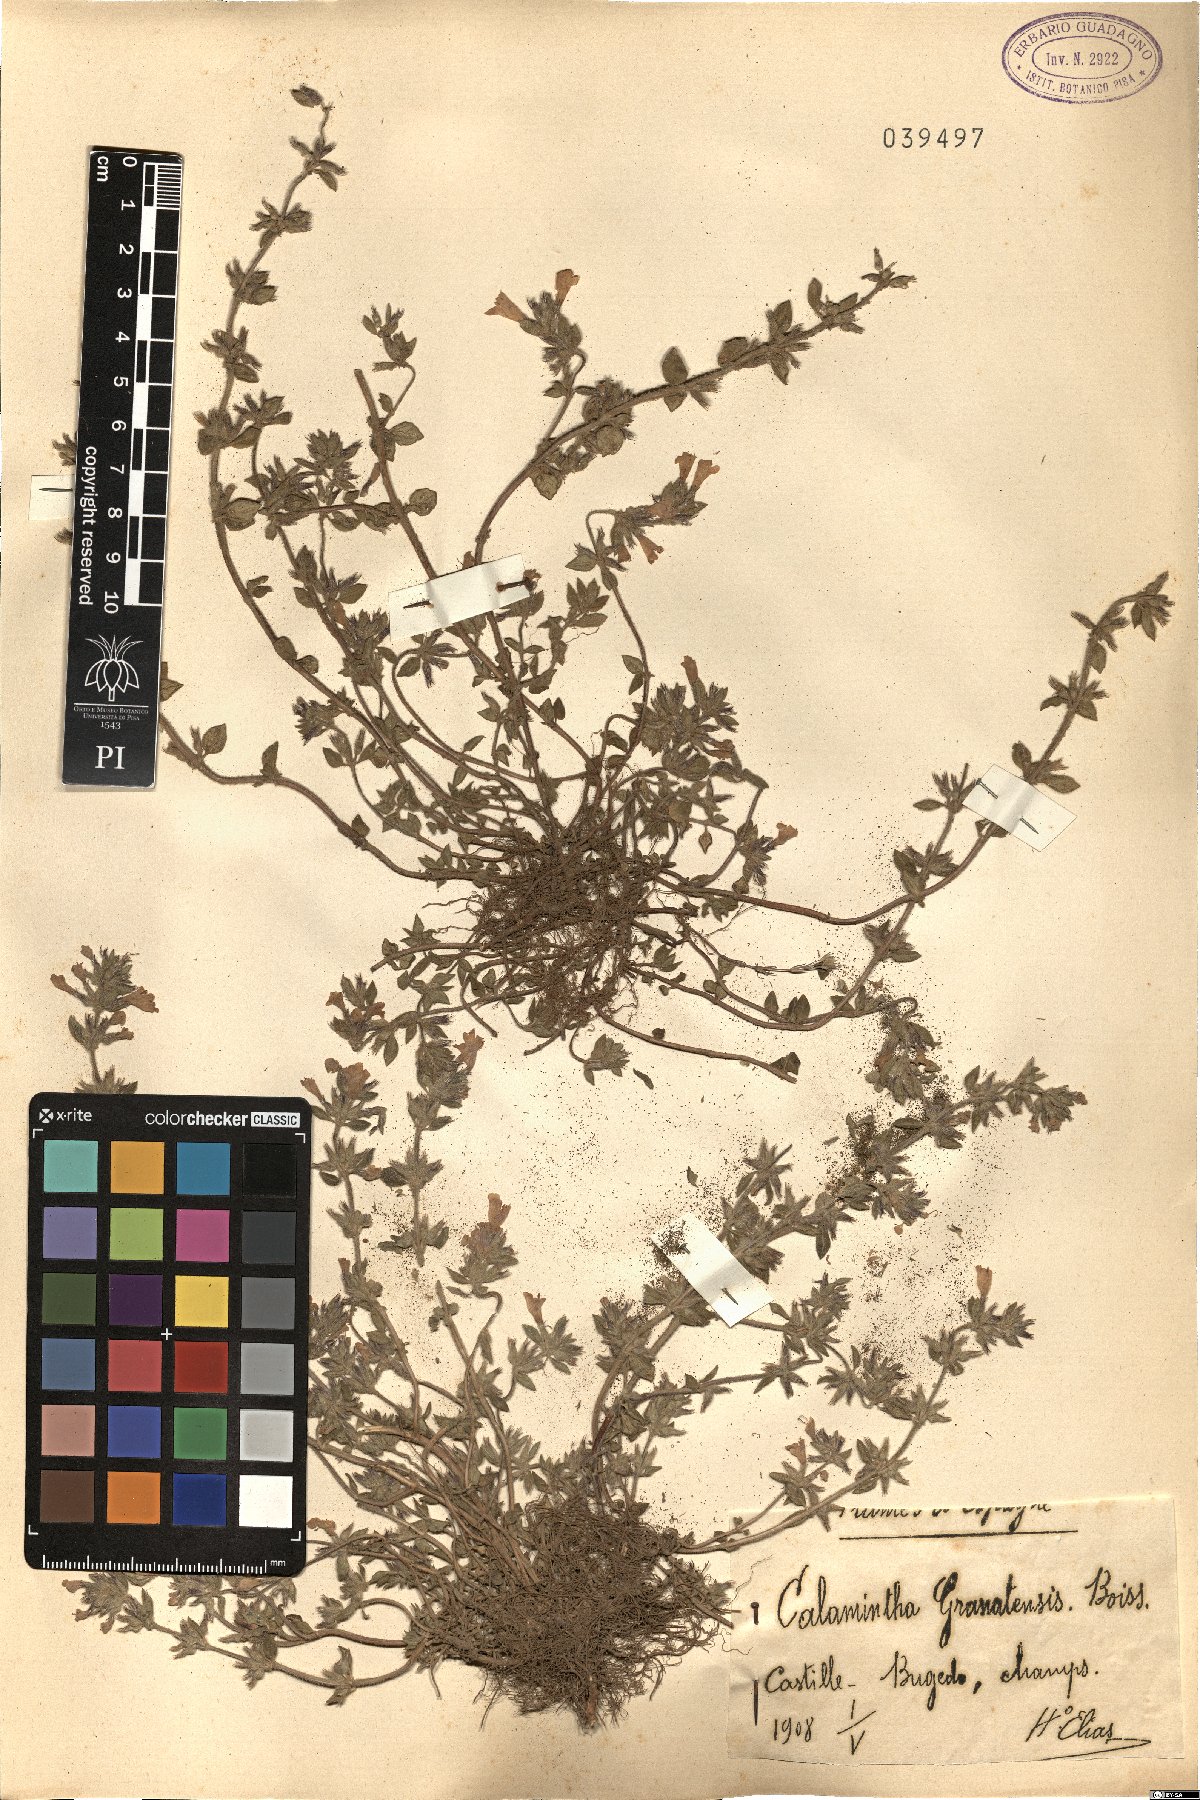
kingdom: Plantae
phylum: Tracheophyta
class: Magnoliopsida
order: Lamiales
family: Lamiaceae
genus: Clinopodium
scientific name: Clinopodium alpinum
